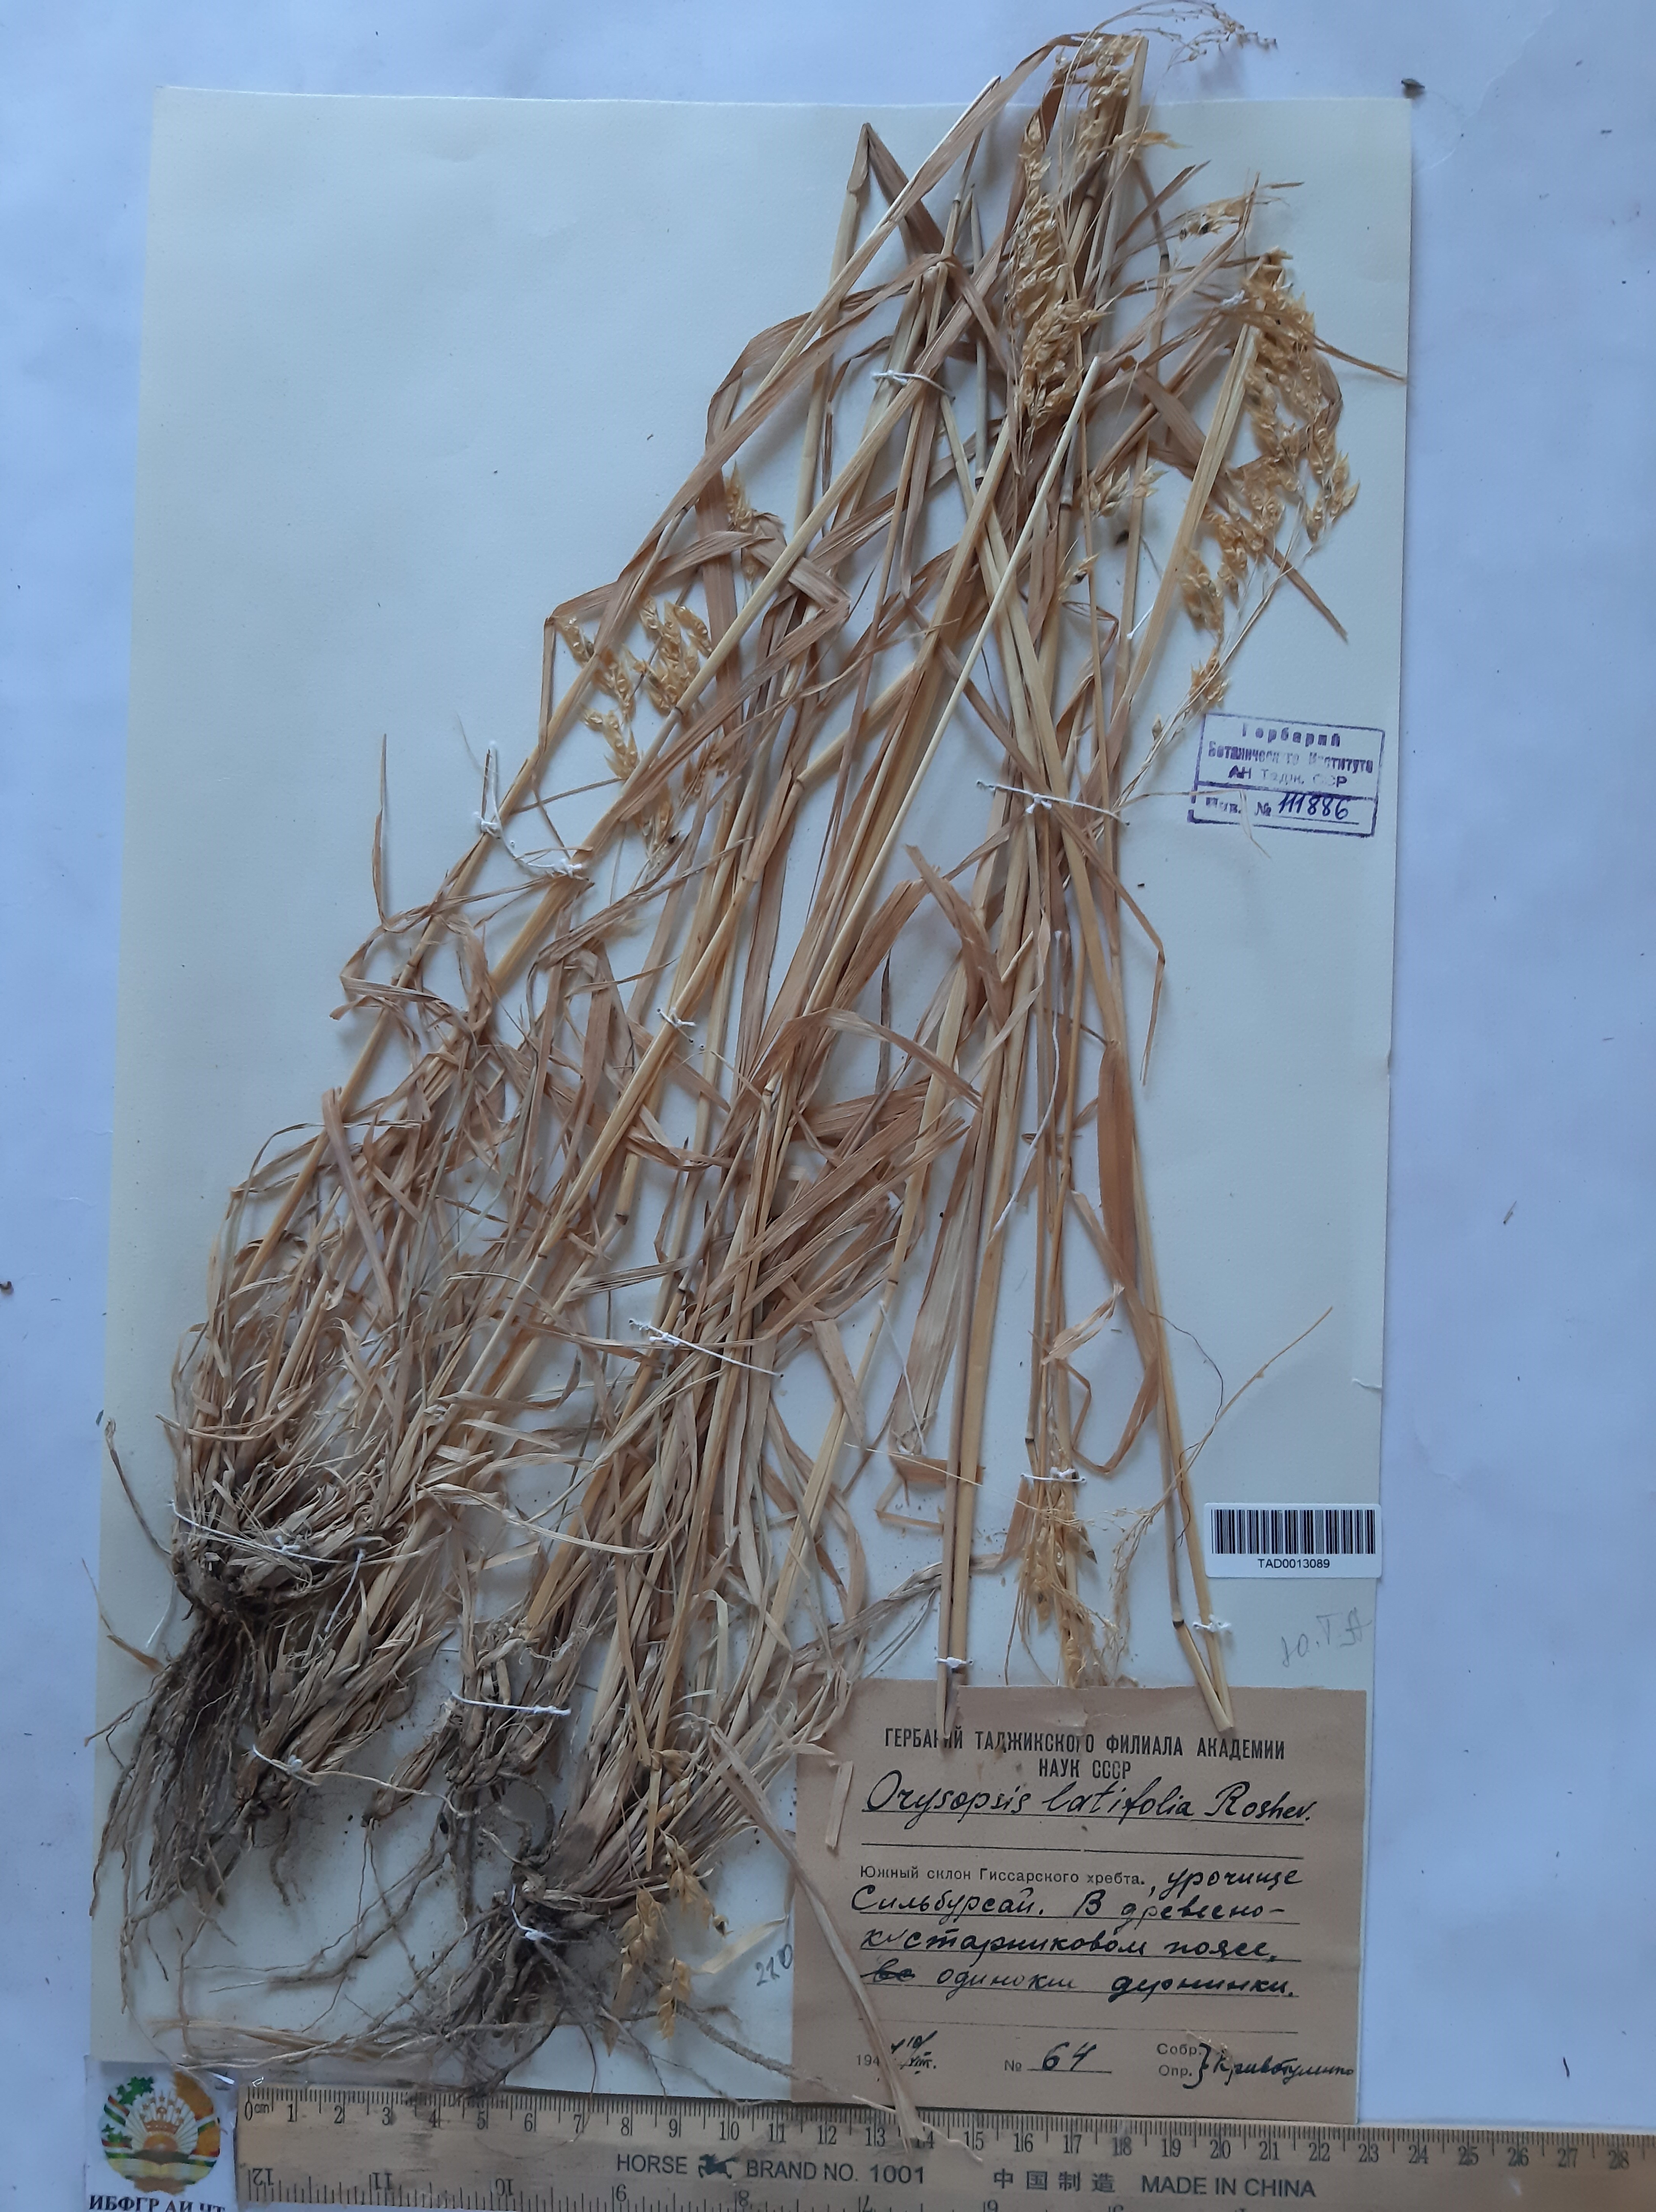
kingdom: Plantae
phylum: Tracheophyta
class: Liliopsida
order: Poales
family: Poaceae
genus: Piptatherum
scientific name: Piptatherum latifolium
